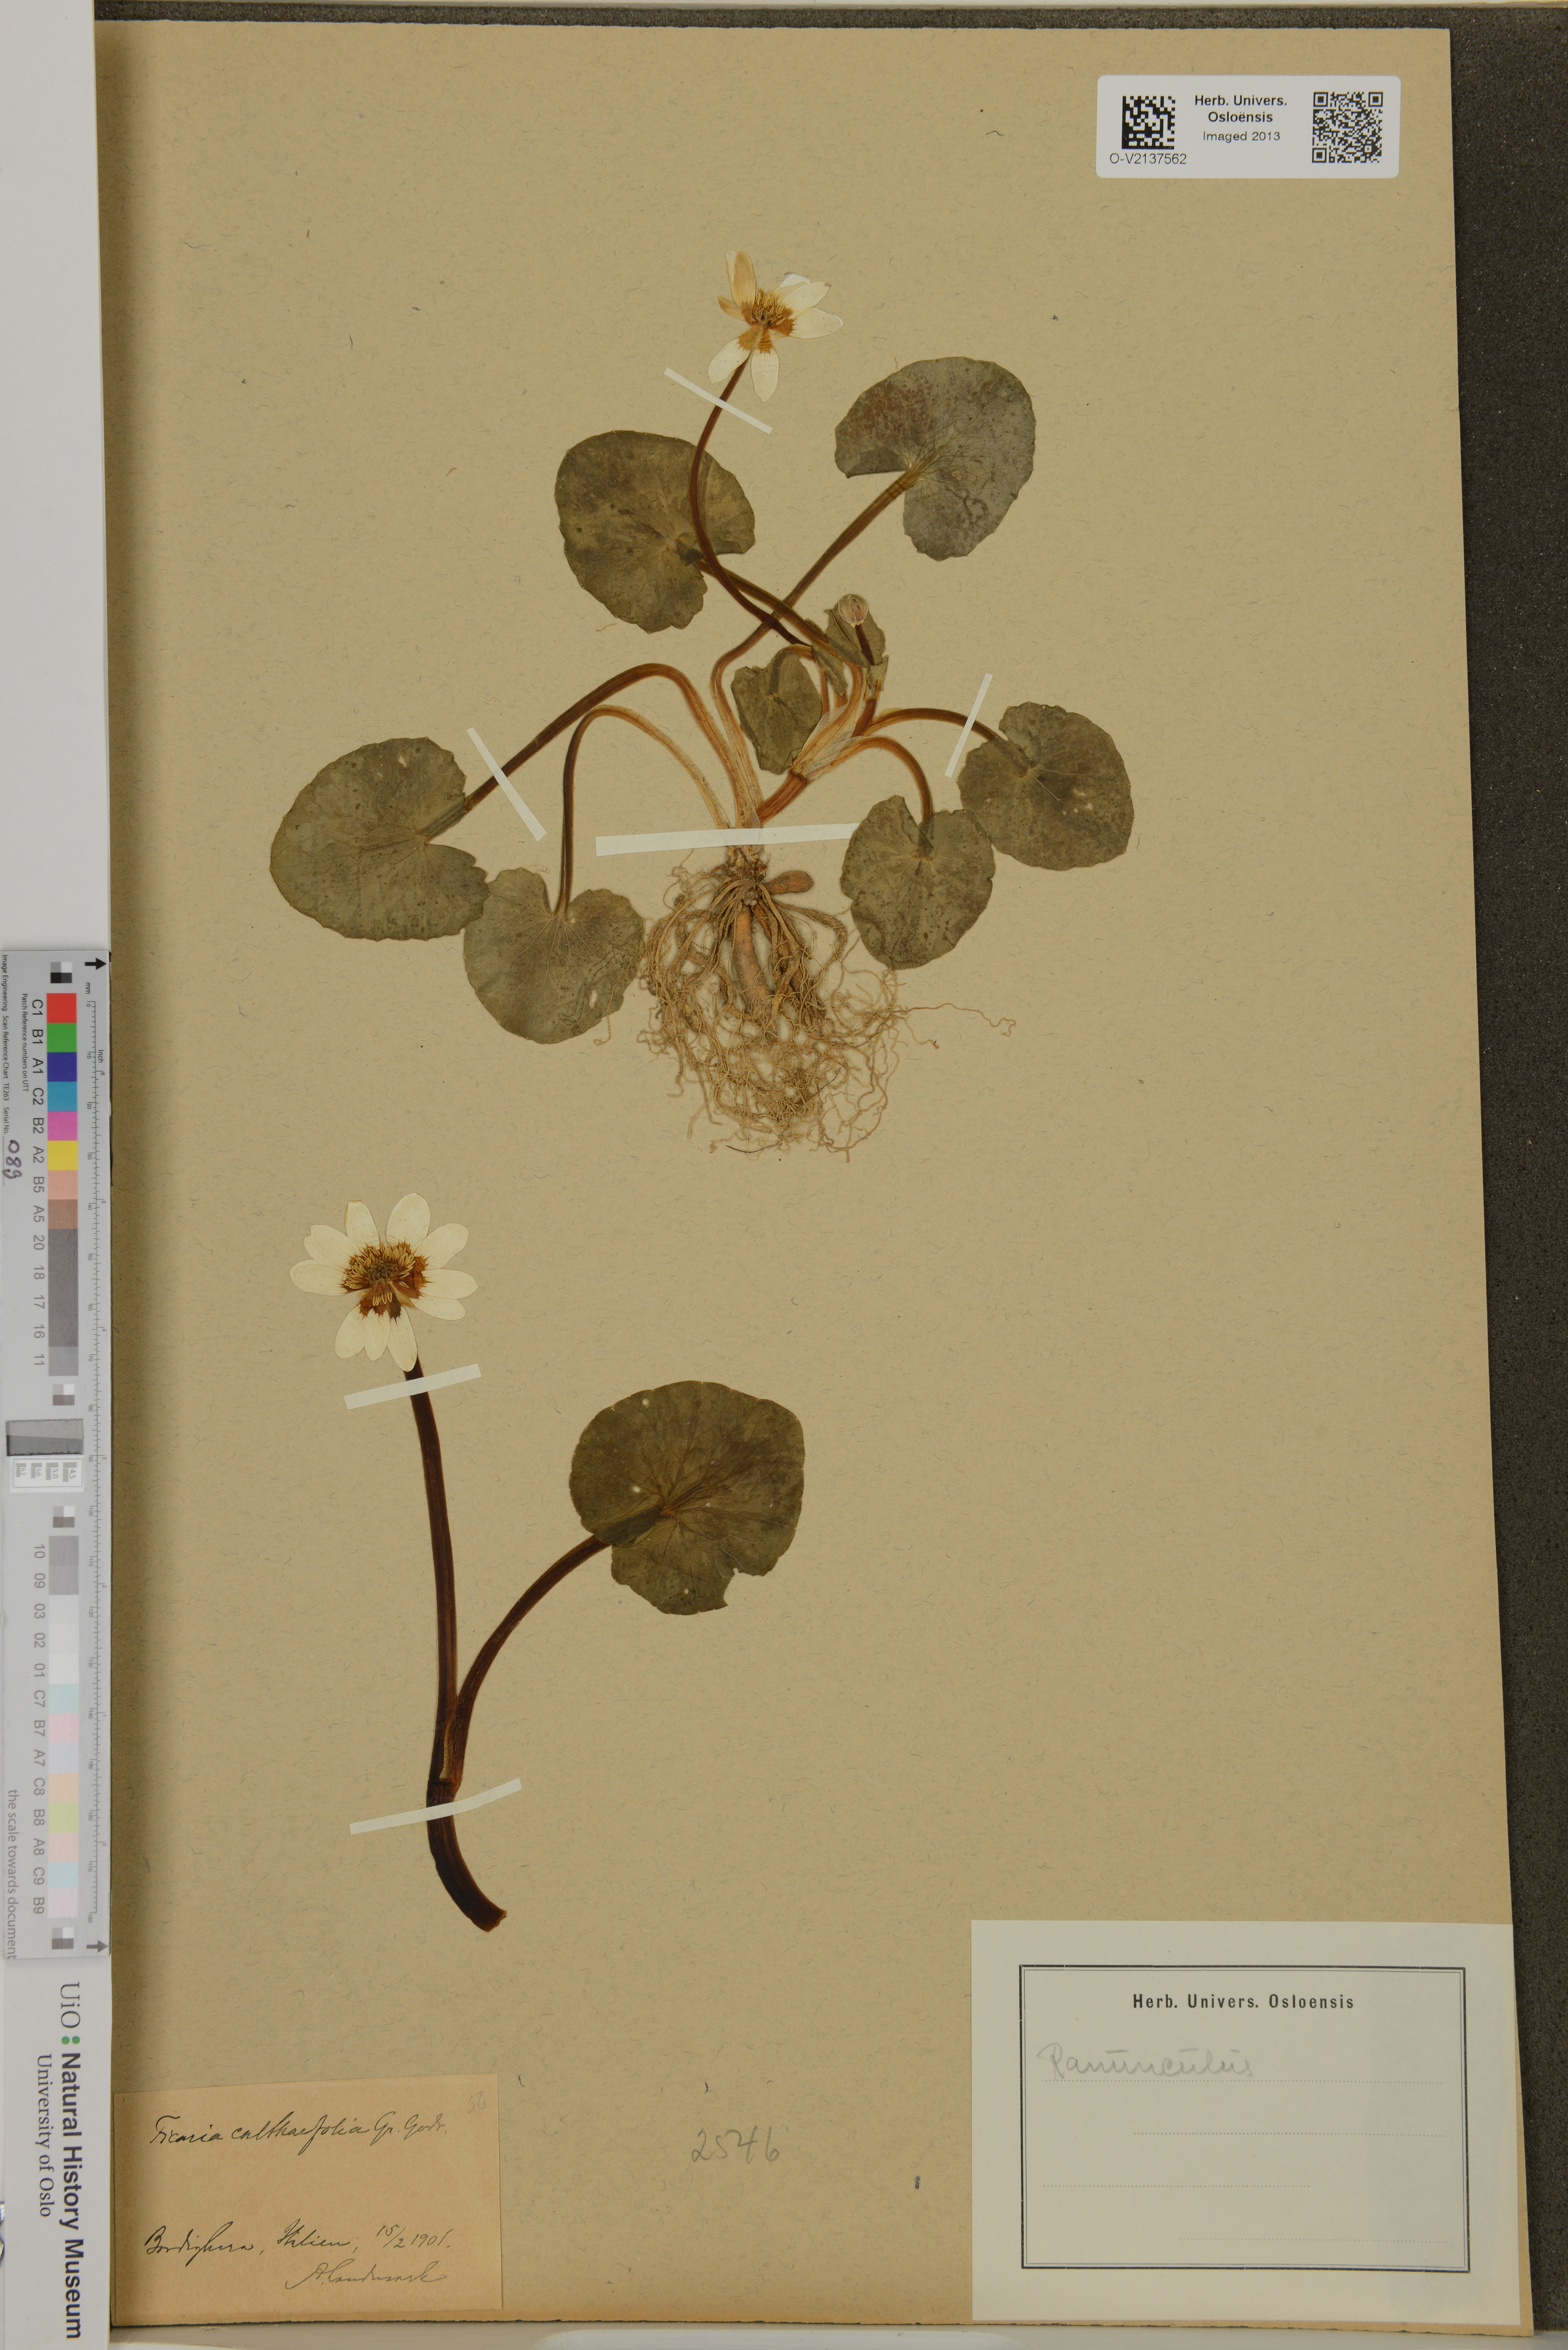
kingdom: Plantae
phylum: Tracheophyta
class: Magnoliopsida
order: Ranunculales
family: Ranunculaceae
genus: Ficaria
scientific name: Ficaria
